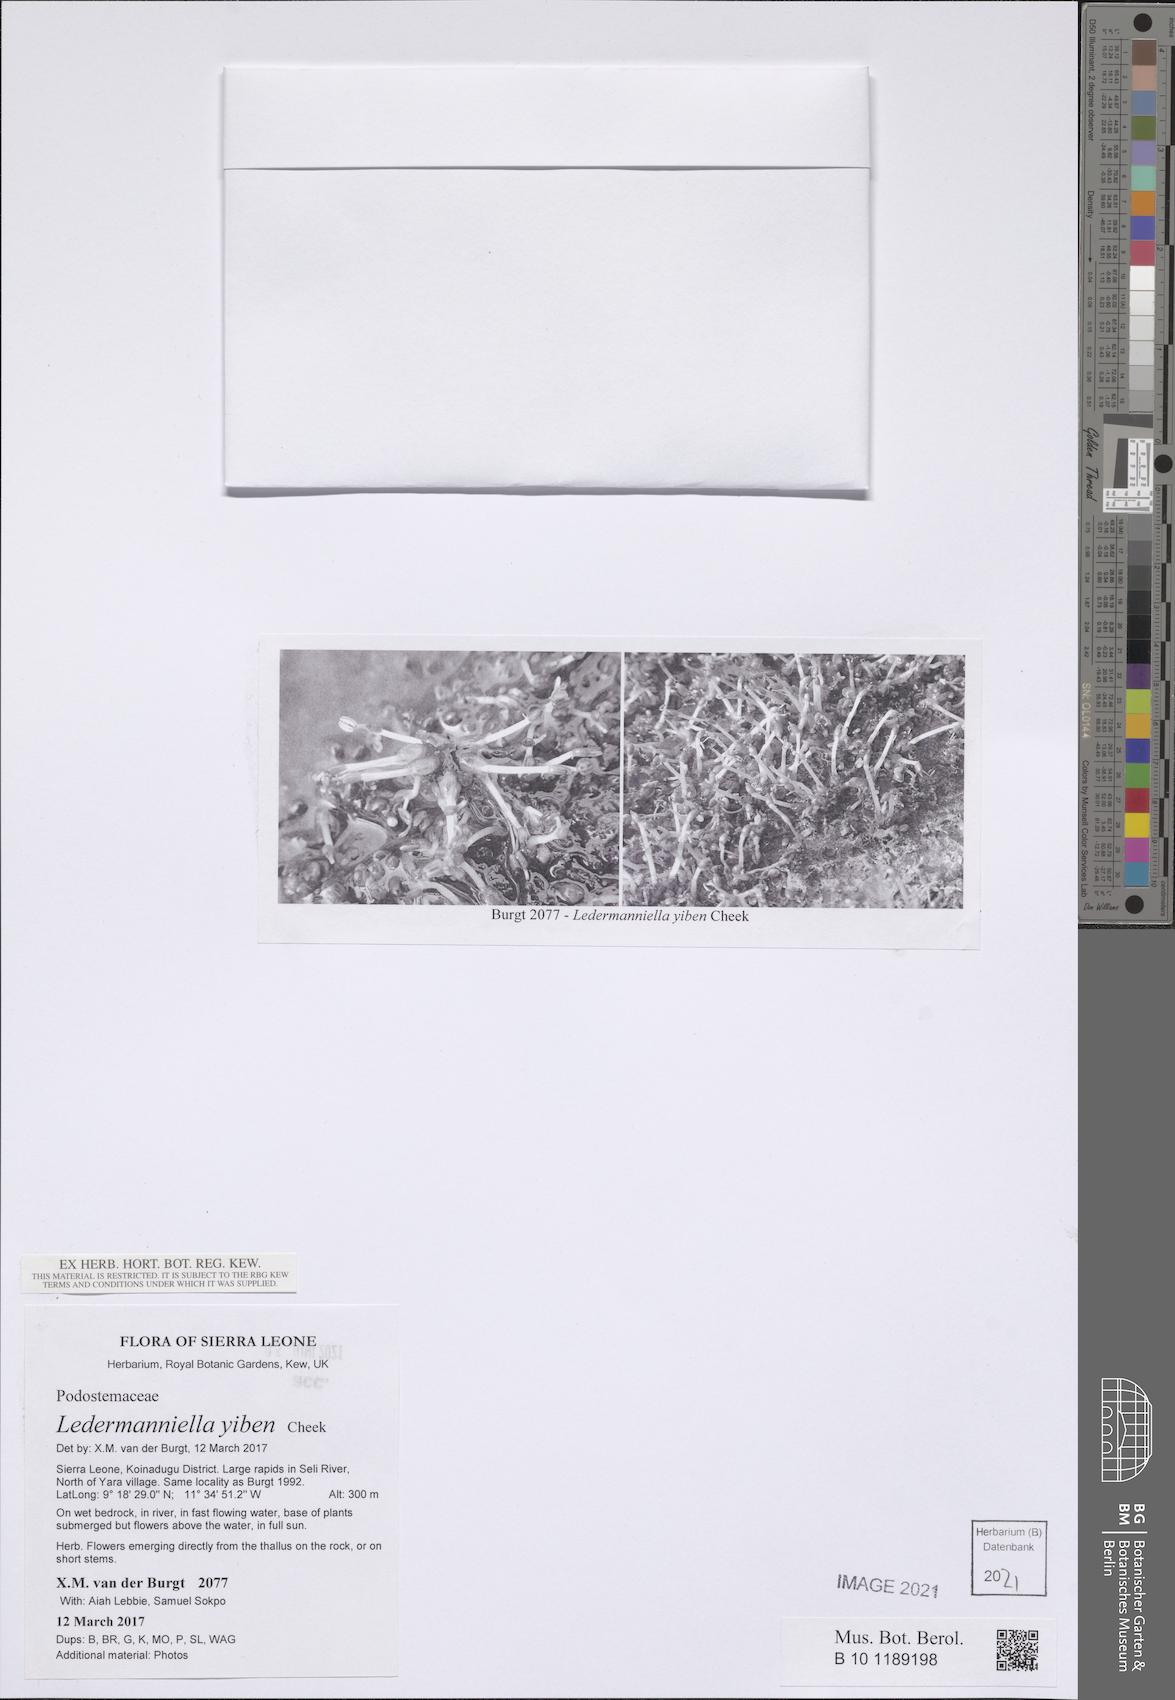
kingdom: Plantae
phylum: Tracheophyta
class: Magnoliopsida
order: Malpighiales
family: Podostemaceae
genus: Ledermanniella
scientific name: Ledermanniella yiben
